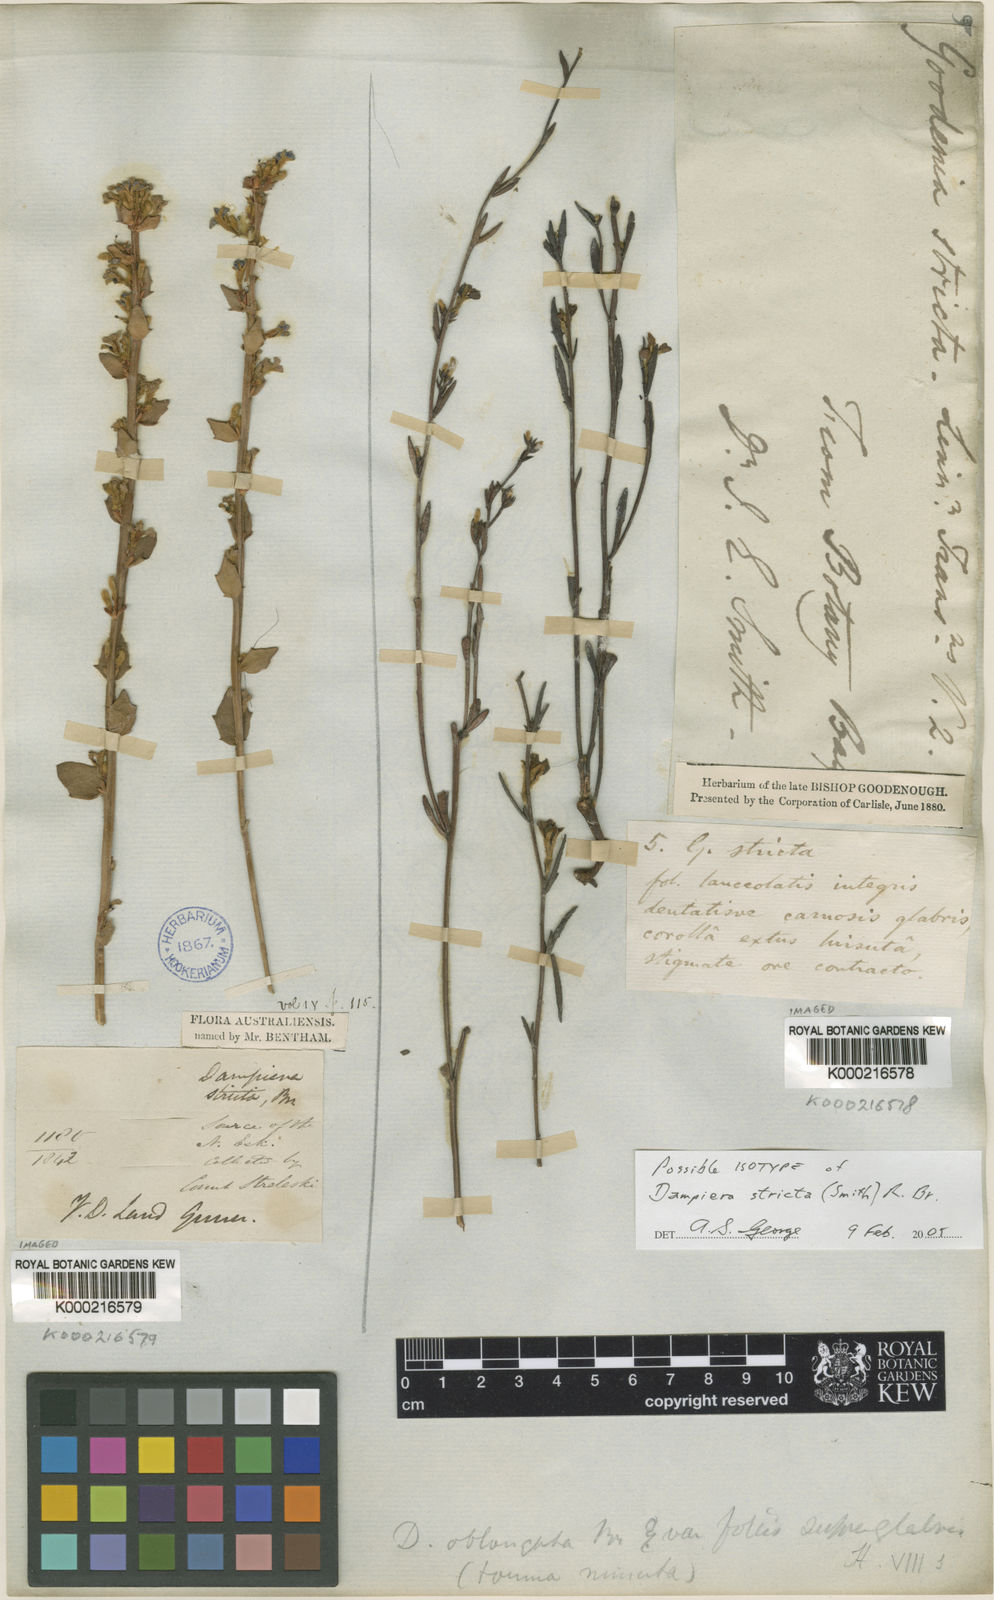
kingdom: Plantae
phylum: Tracheophyta
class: Magnoliopsida
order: Asterales
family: Goodeniaceae
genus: Dampiera
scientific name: Dampiera stricta
